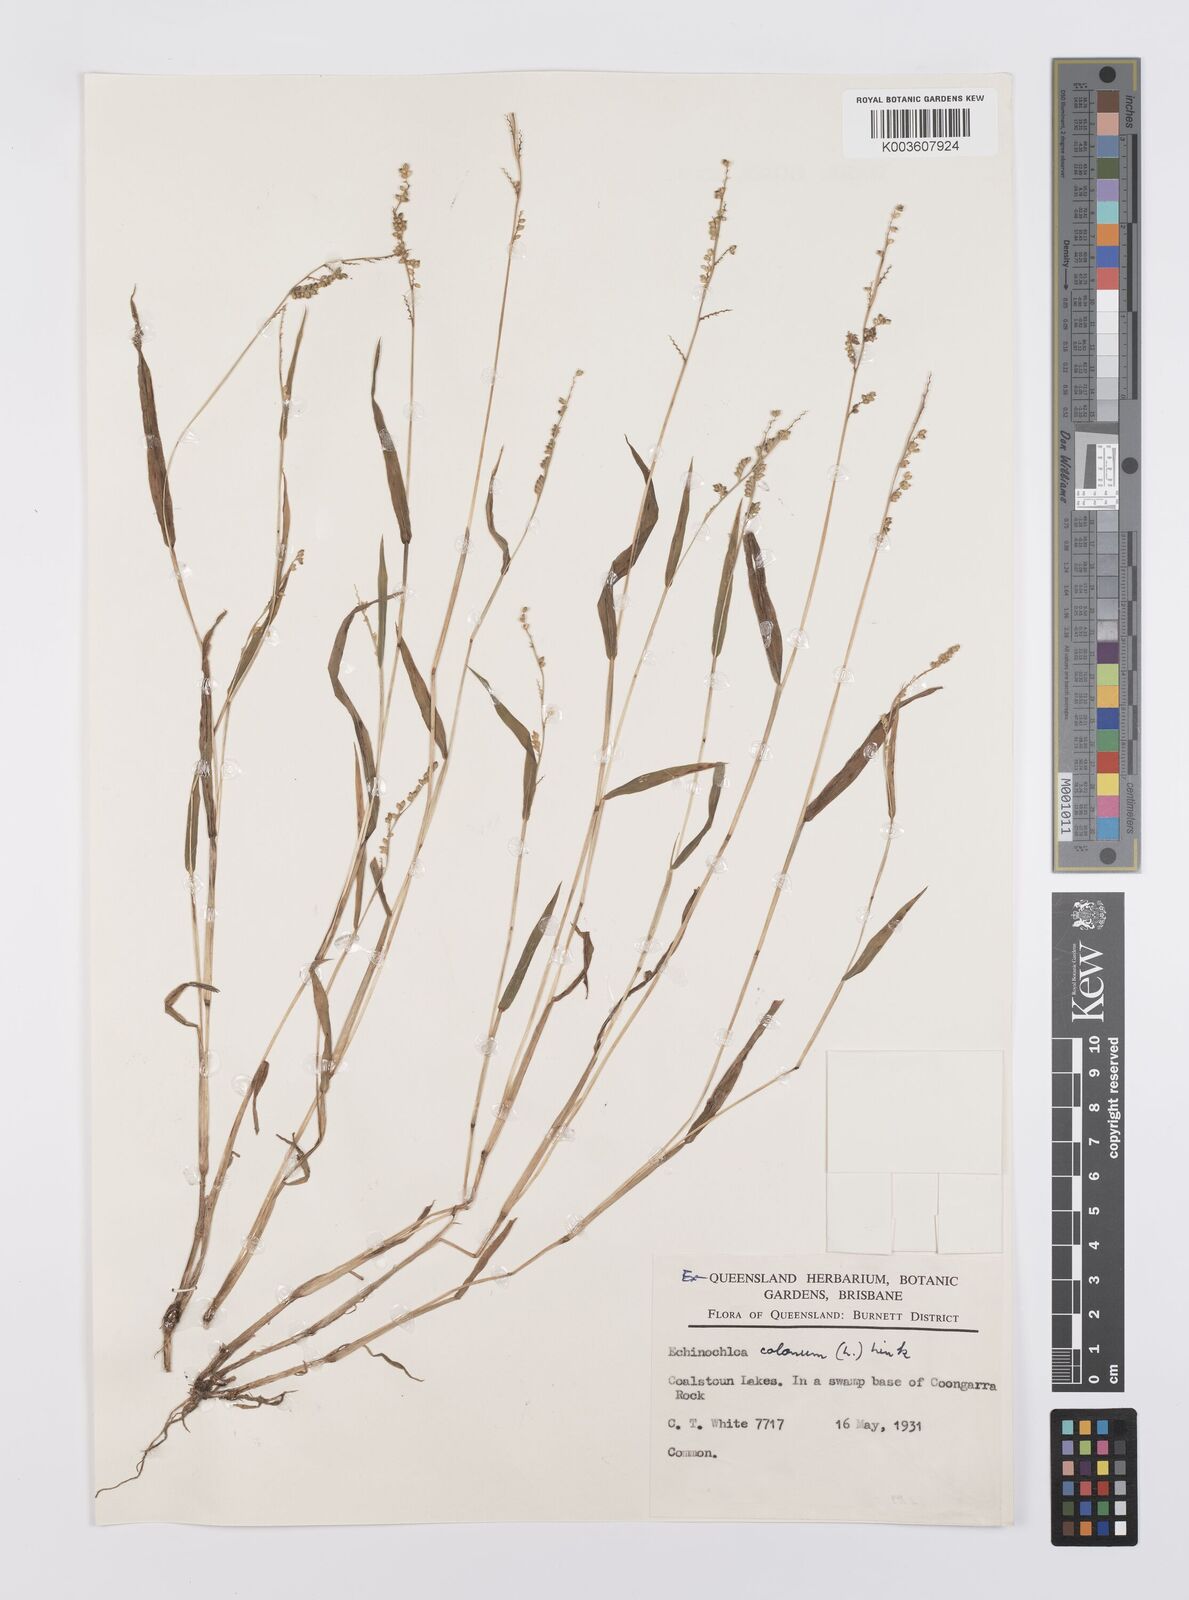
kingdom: Plantae
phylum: Tracheophyta
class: Liliopsida
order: Poales
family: Poaceae
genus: Echinochloa
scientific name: Echinochloa colonum
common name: Jungle rice
